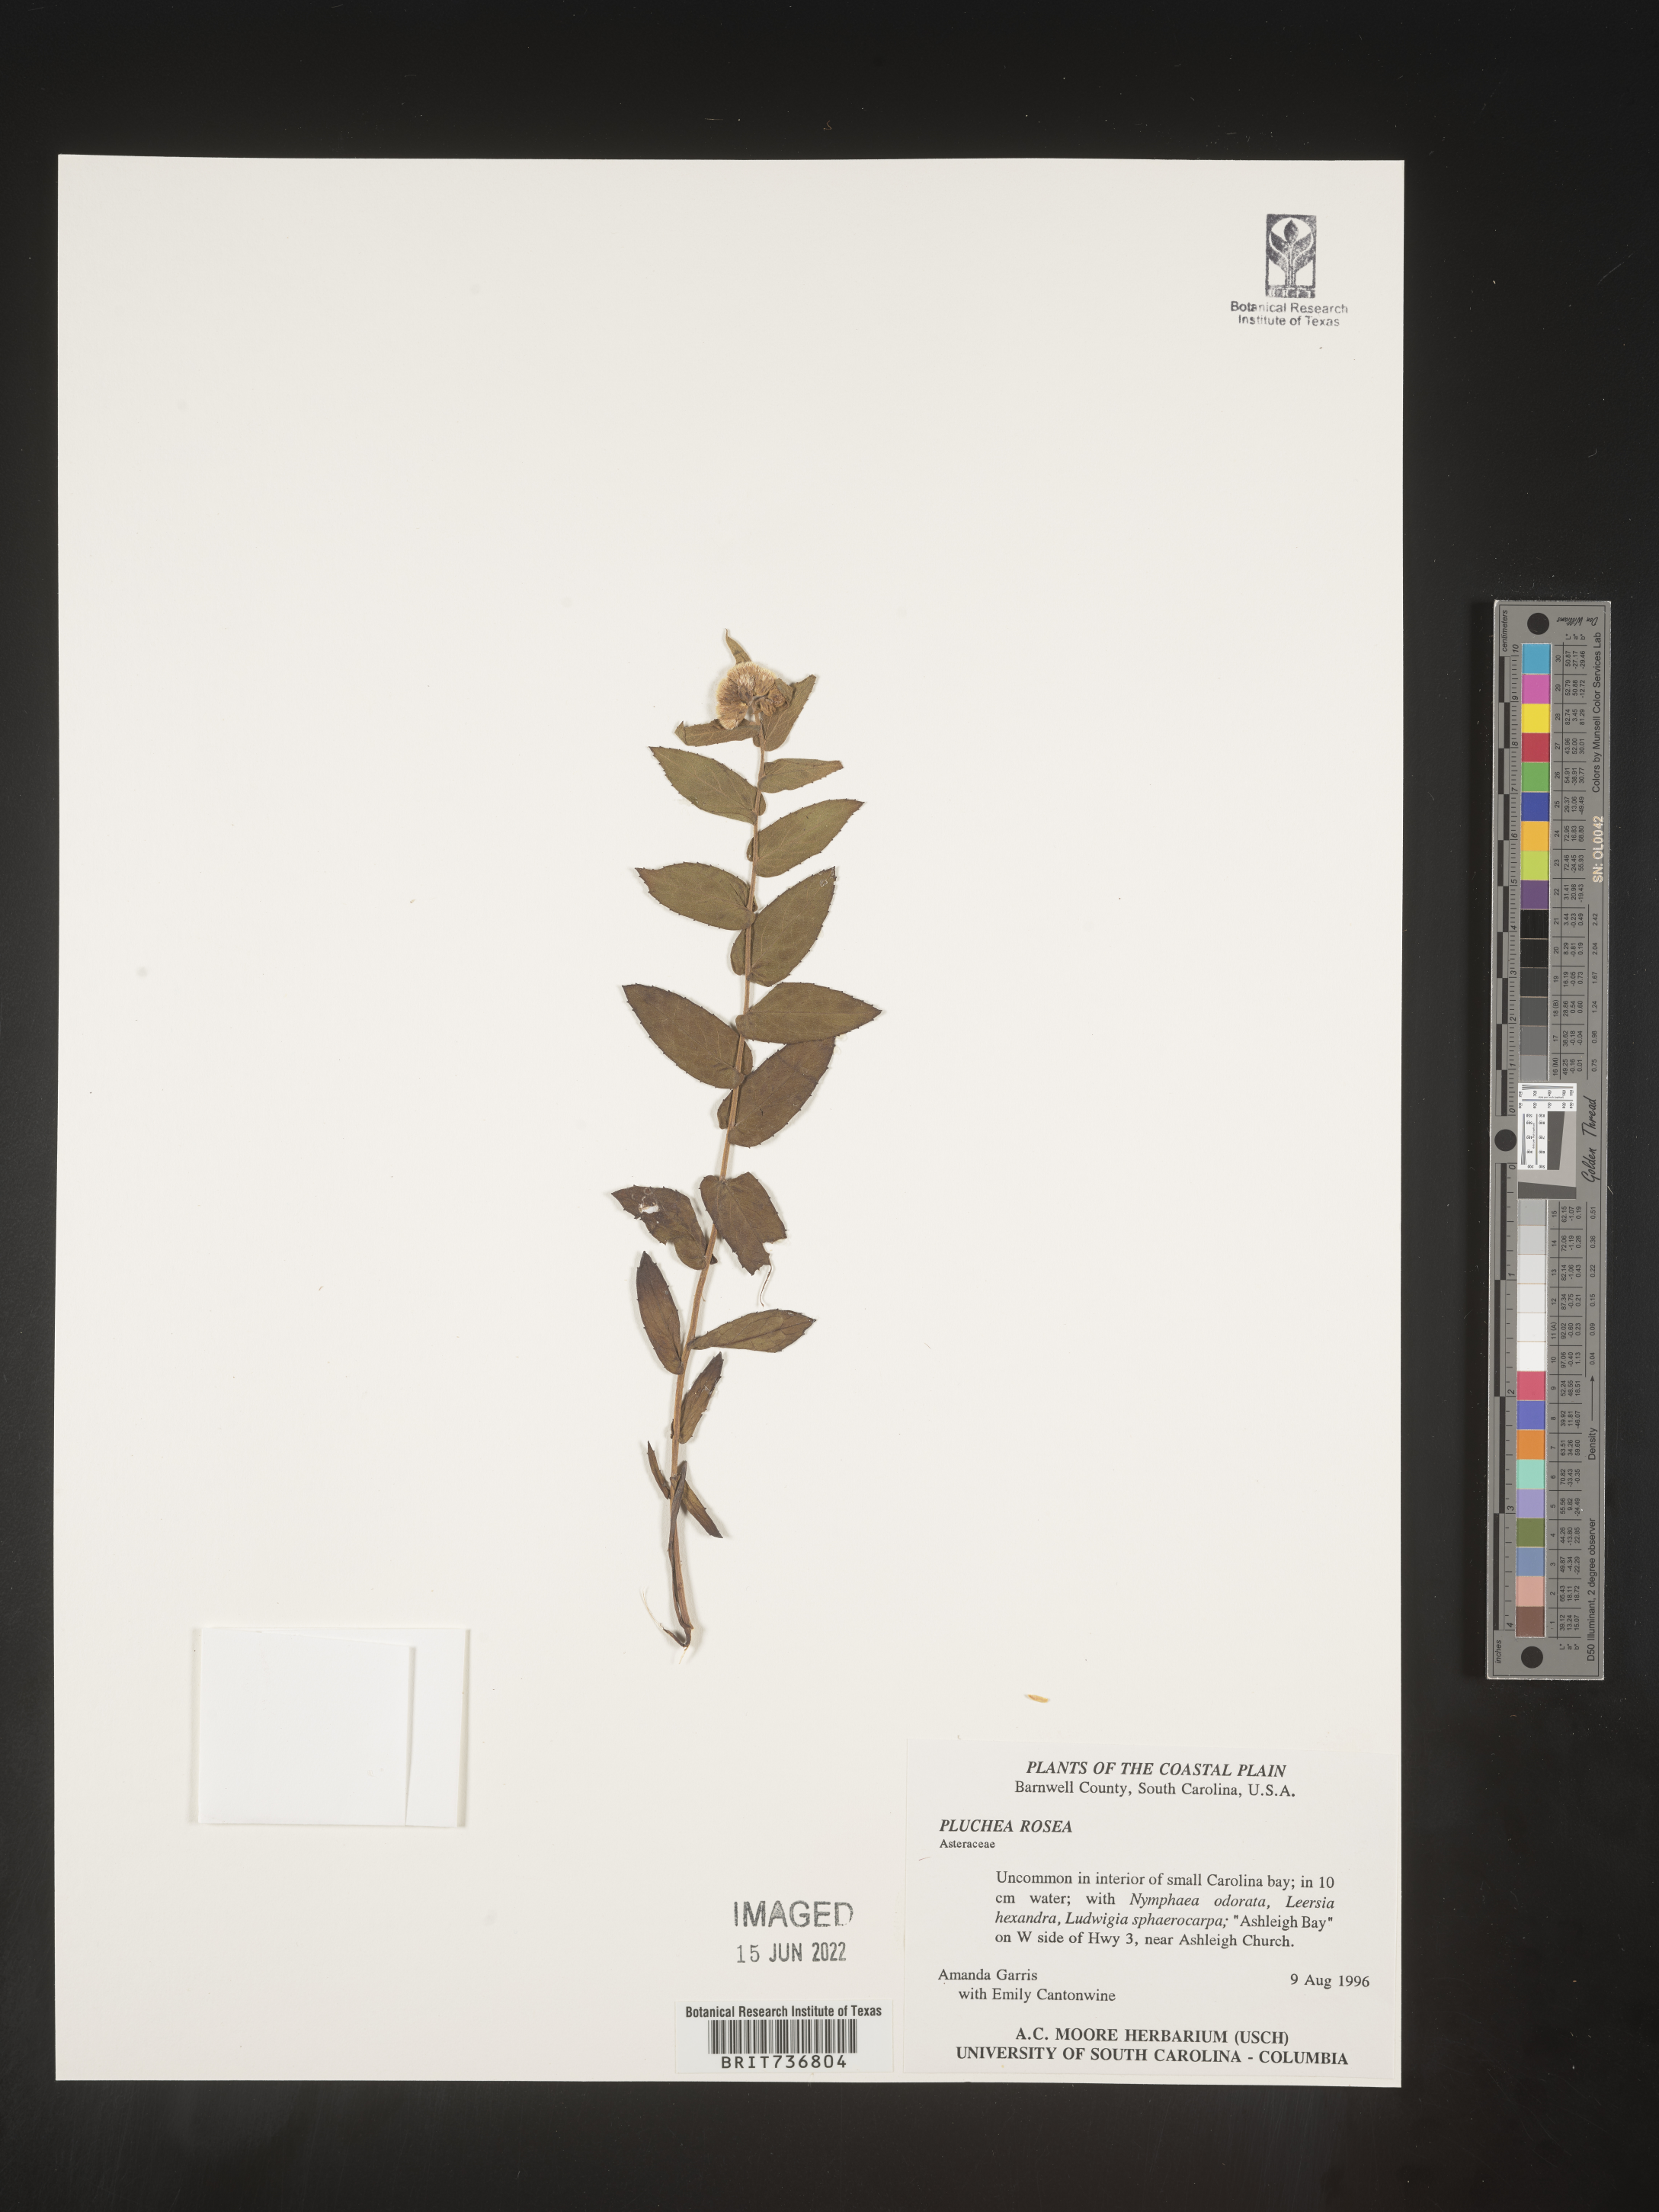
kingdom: Plantae
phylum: Tracheophyta
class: Magnoliopsida
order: Asterales
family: Asteraceae
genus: Pluchea
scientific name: Pluchea baccharis
